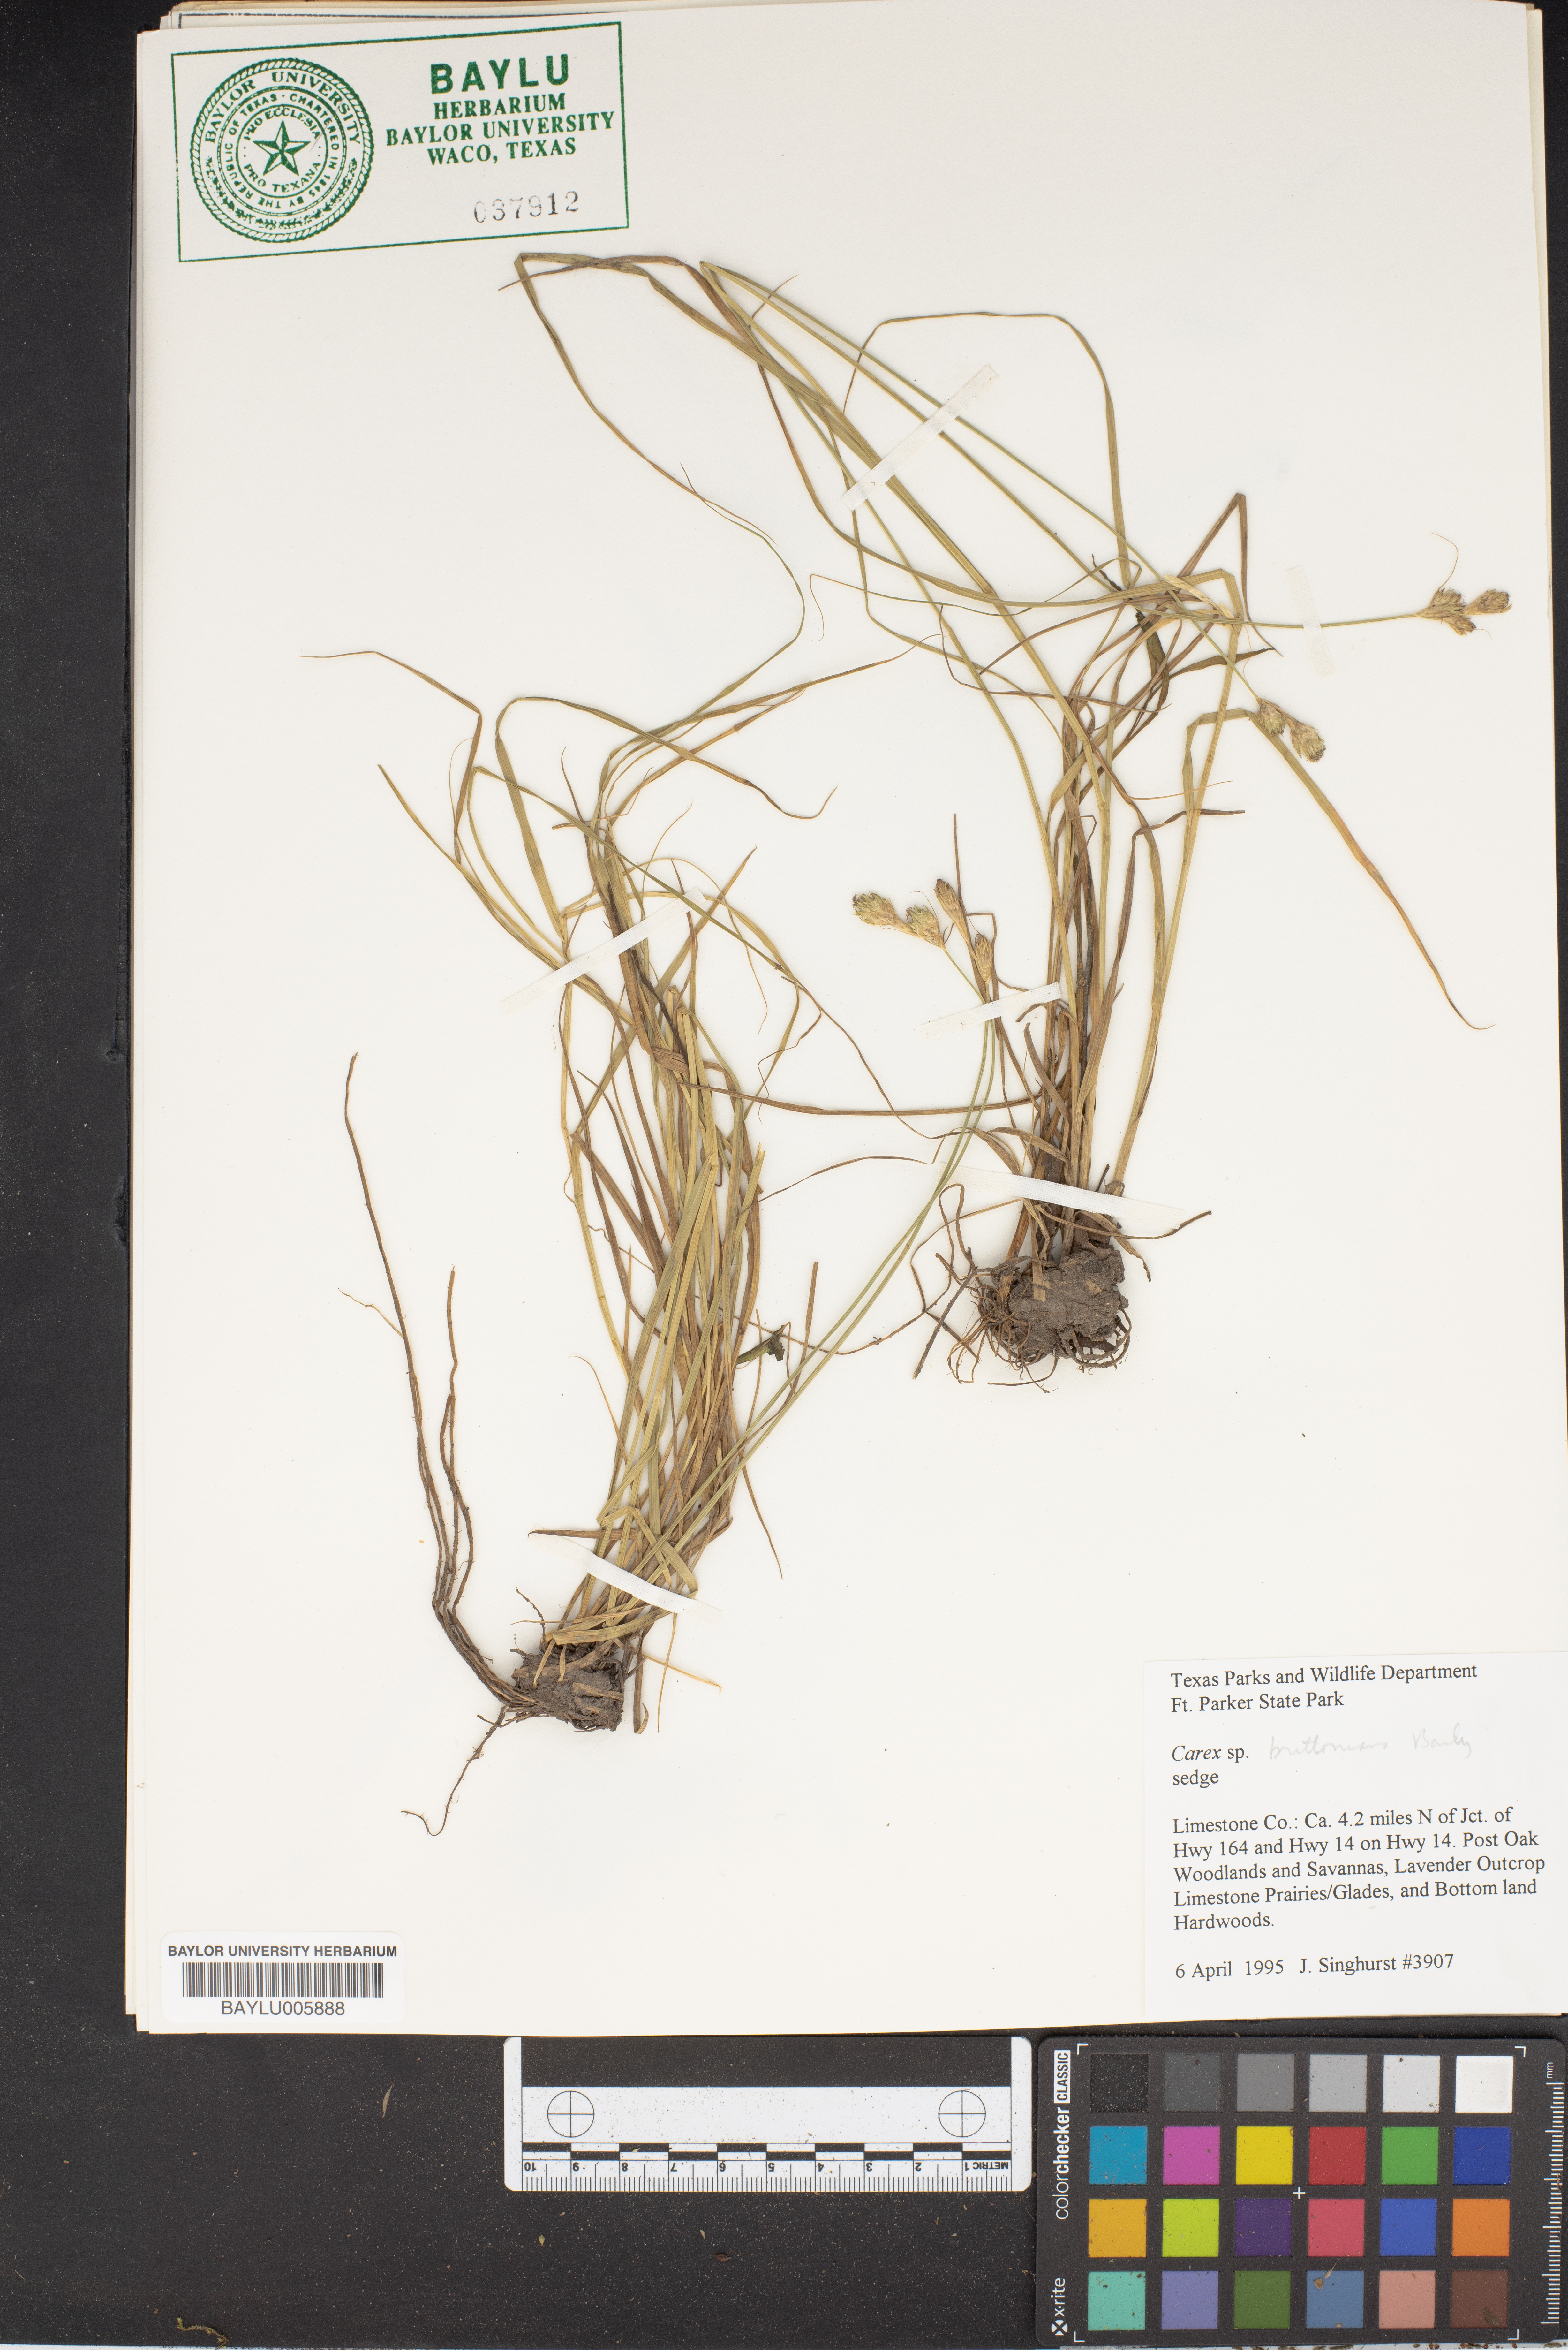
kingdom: Plantae
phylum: Tracheophyta
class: Liliopsida
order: Poales
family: Cyperaceae
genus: Carex
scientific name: Carex
